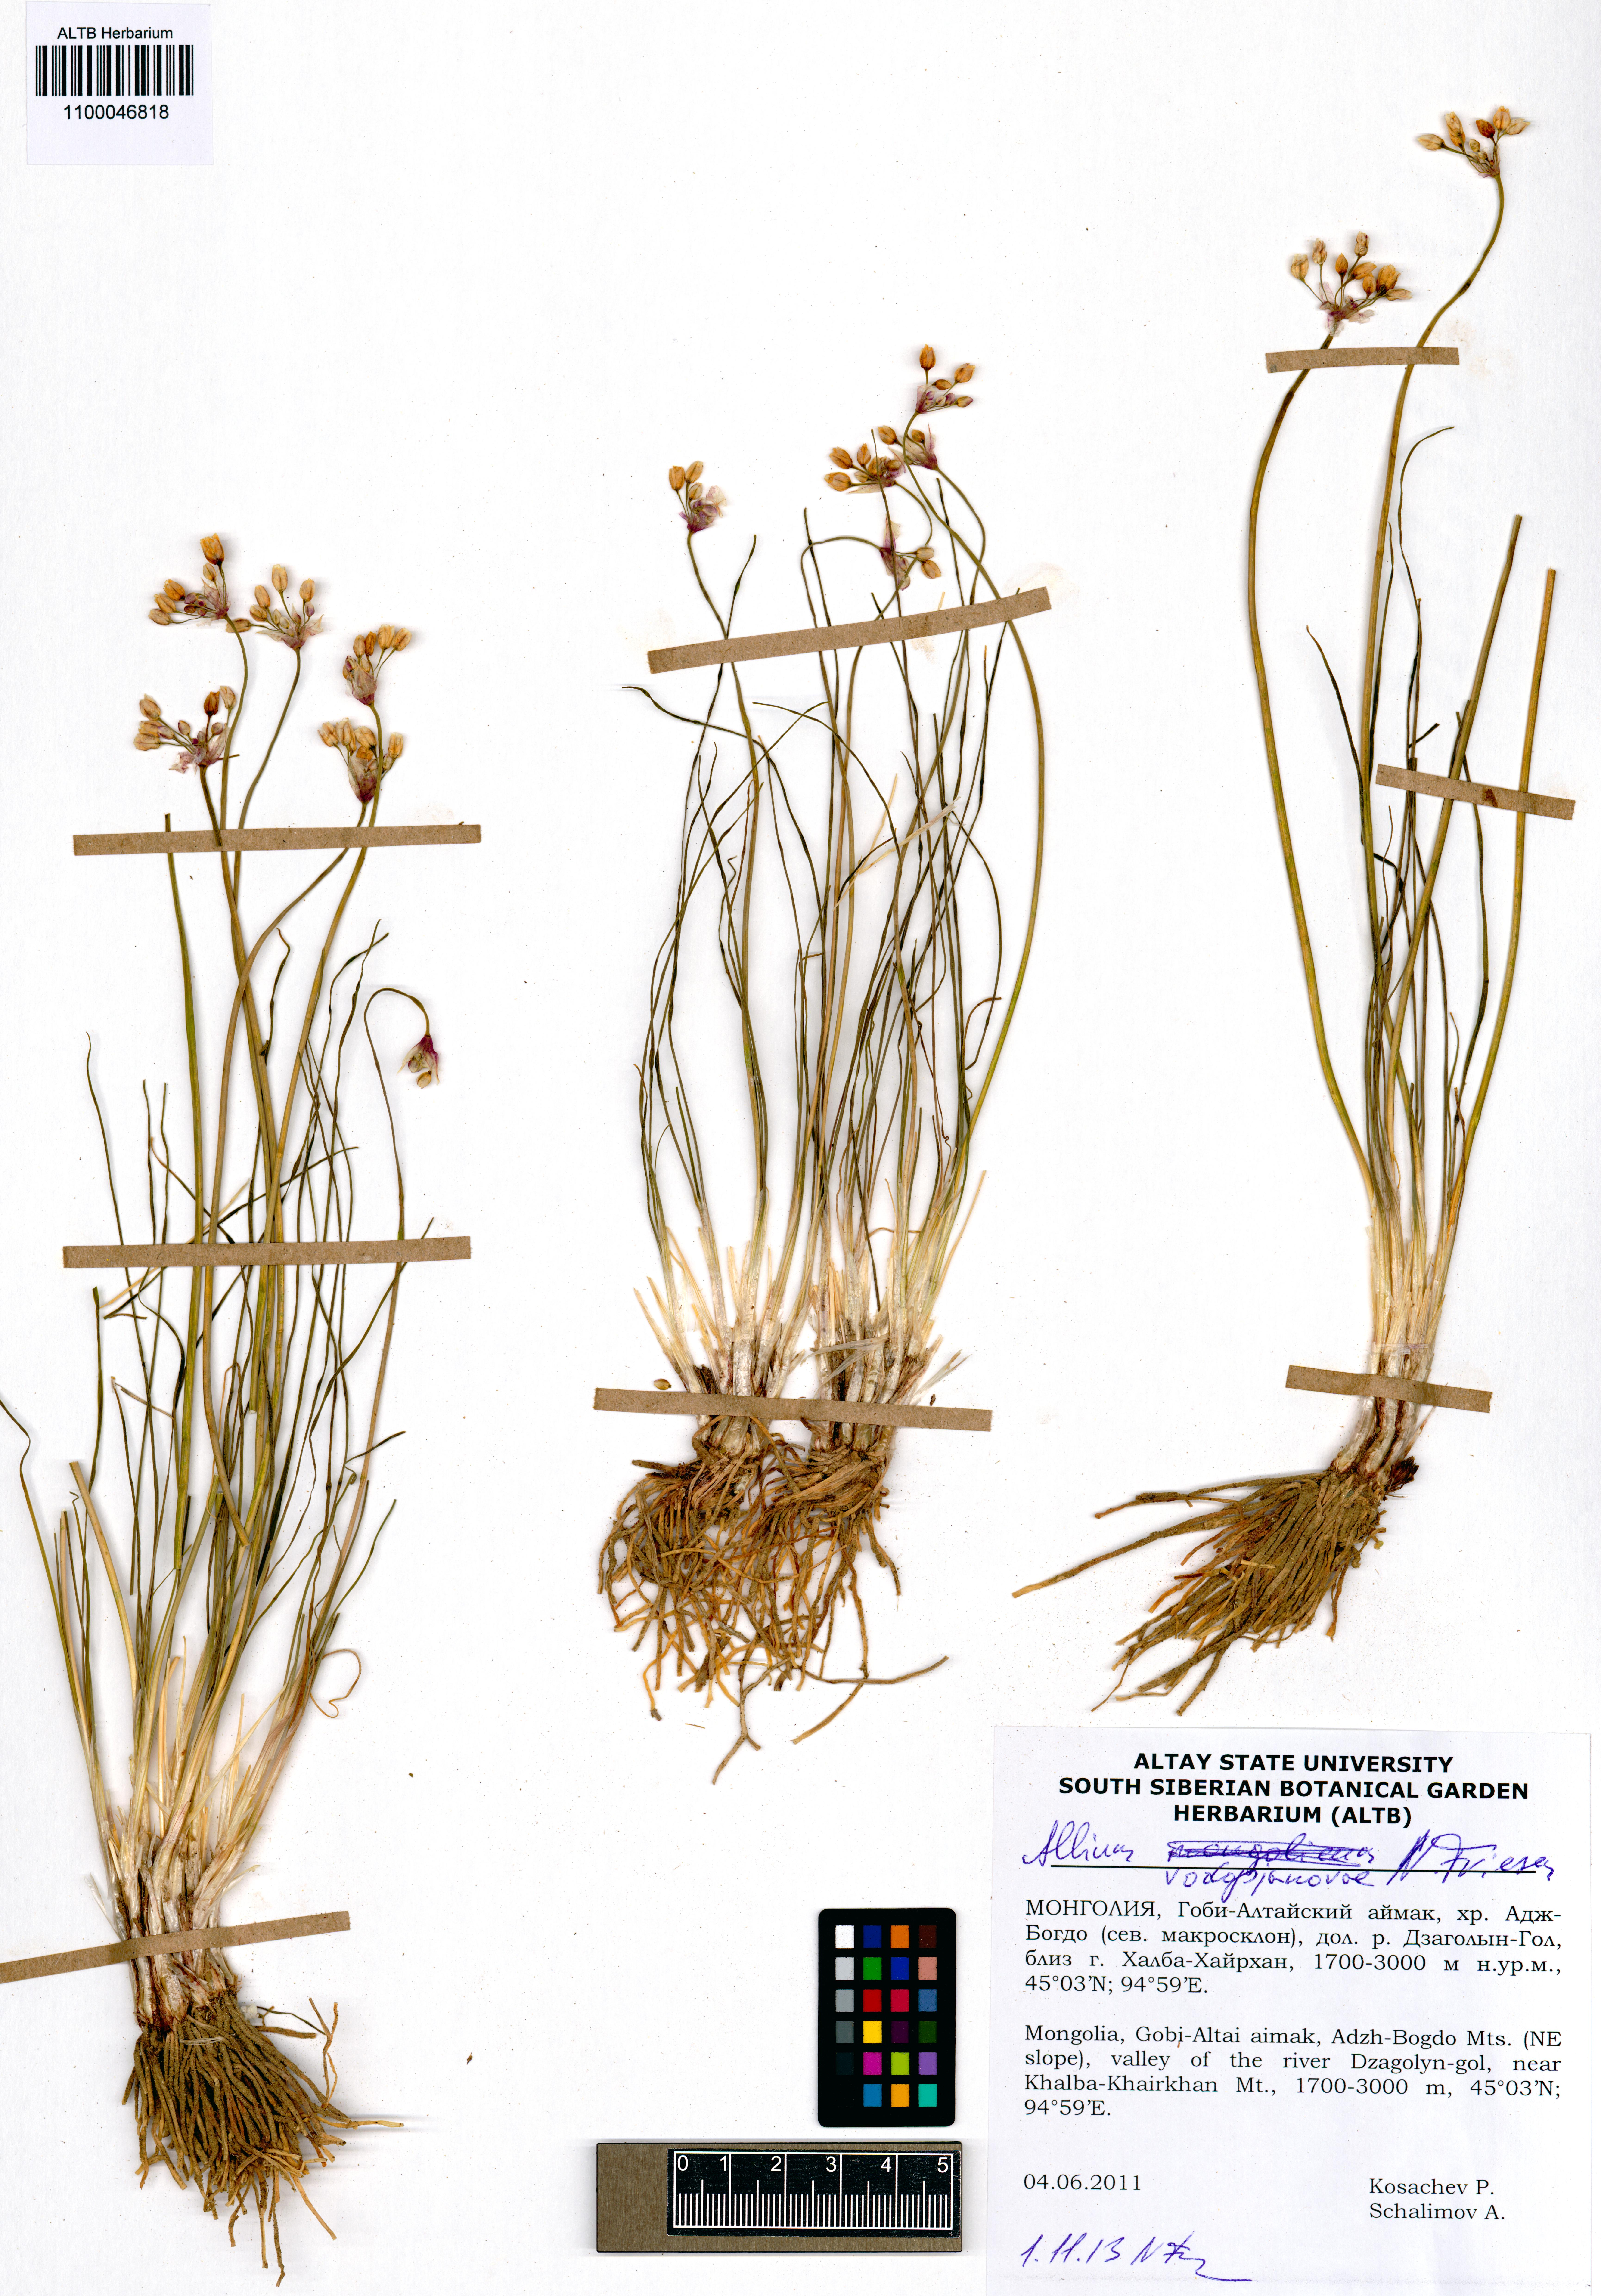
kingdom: Plantae
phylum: Tracheophyta
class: Liliopsida
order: Asparagales
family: Amaryllidaceae
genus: Allium
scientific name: Allium vodopjanovae
